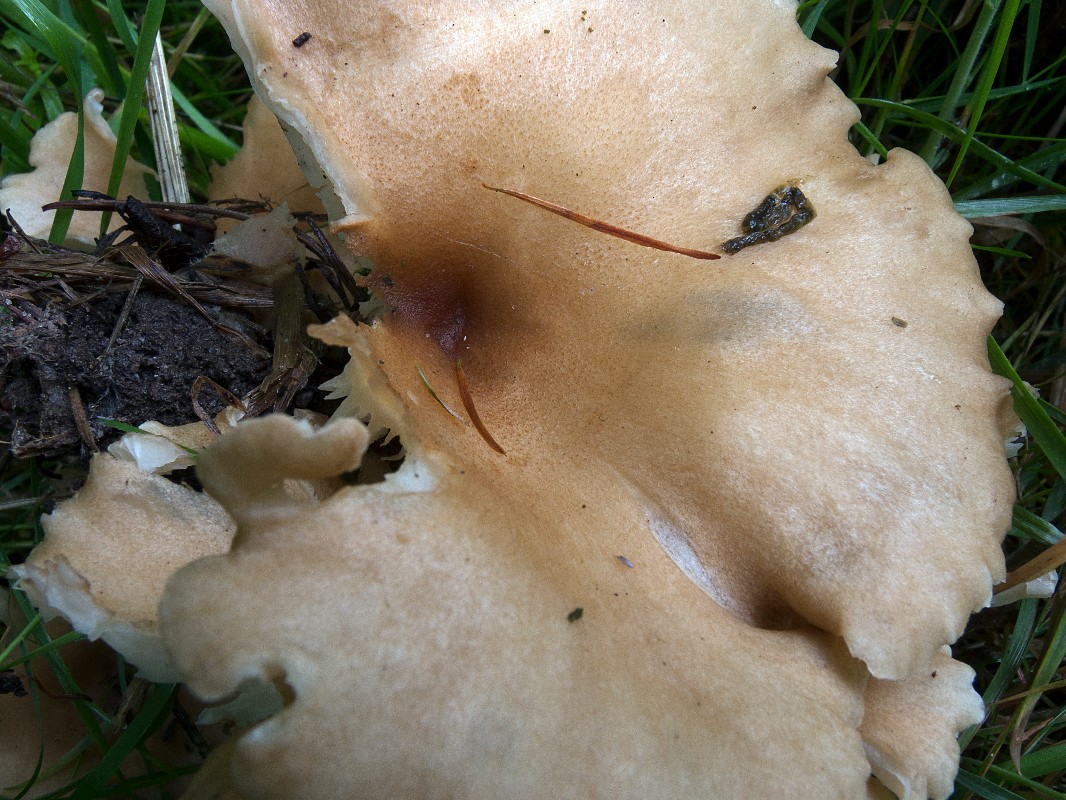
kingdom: Fungi
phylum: Basidiomycota
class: Agaricomycetes
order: Agaricales
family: Tricholomataceae
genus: Infundibulicybe
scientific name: Infundibulicybe squamulosa
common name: småskællet tragthat
